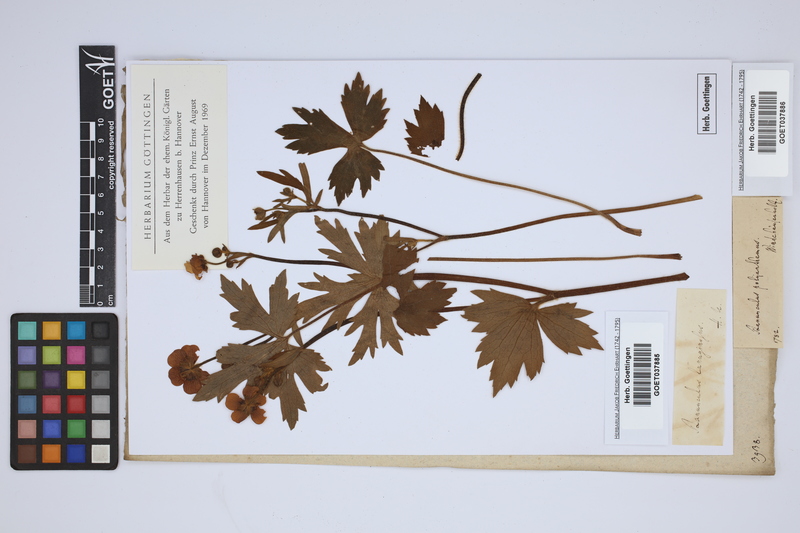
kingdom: Plantae
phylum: Tracheophyta
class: Magnoliopsida
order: Ranunculales
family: Ranunculaceae
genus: Ranunculus
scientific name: Ranunculus polyanthemos
